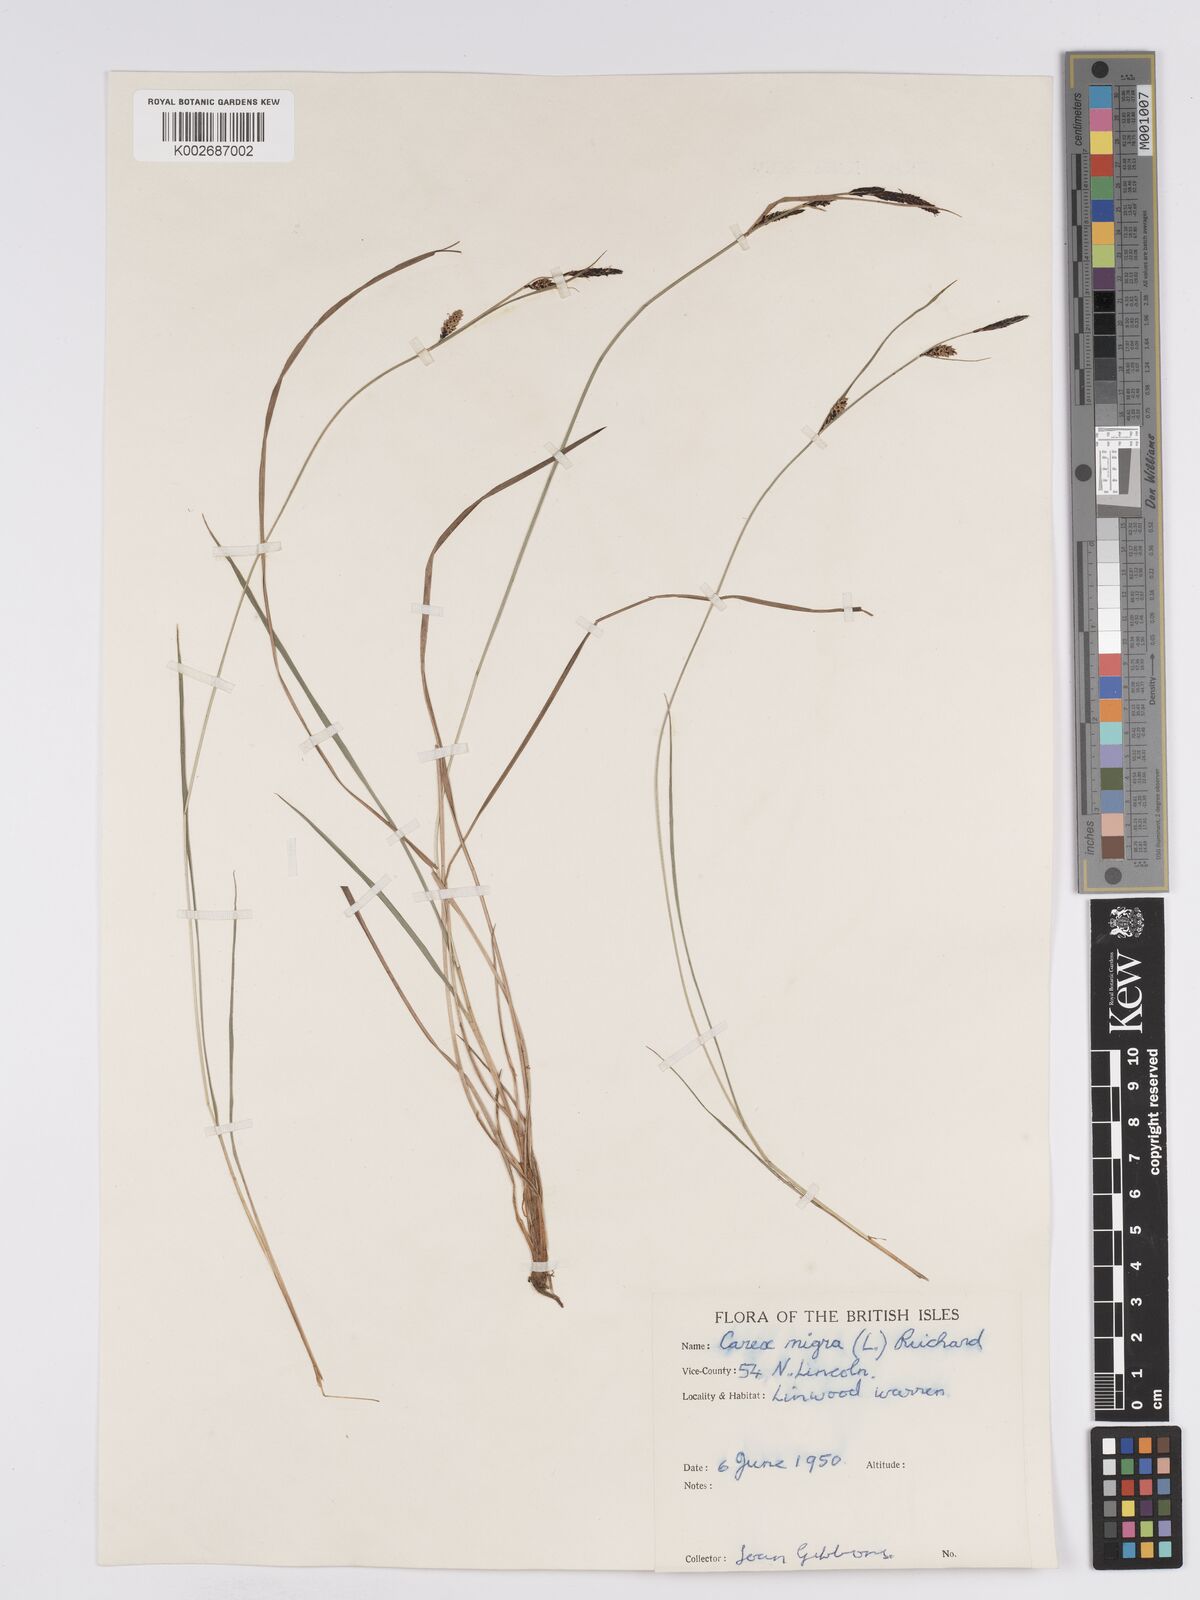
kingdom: Plantae
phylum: Tracheophyta
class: Liliopsida
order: Poales
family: Cyperaceae
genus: Carex
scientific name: Carex nigra
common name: Common sedge
